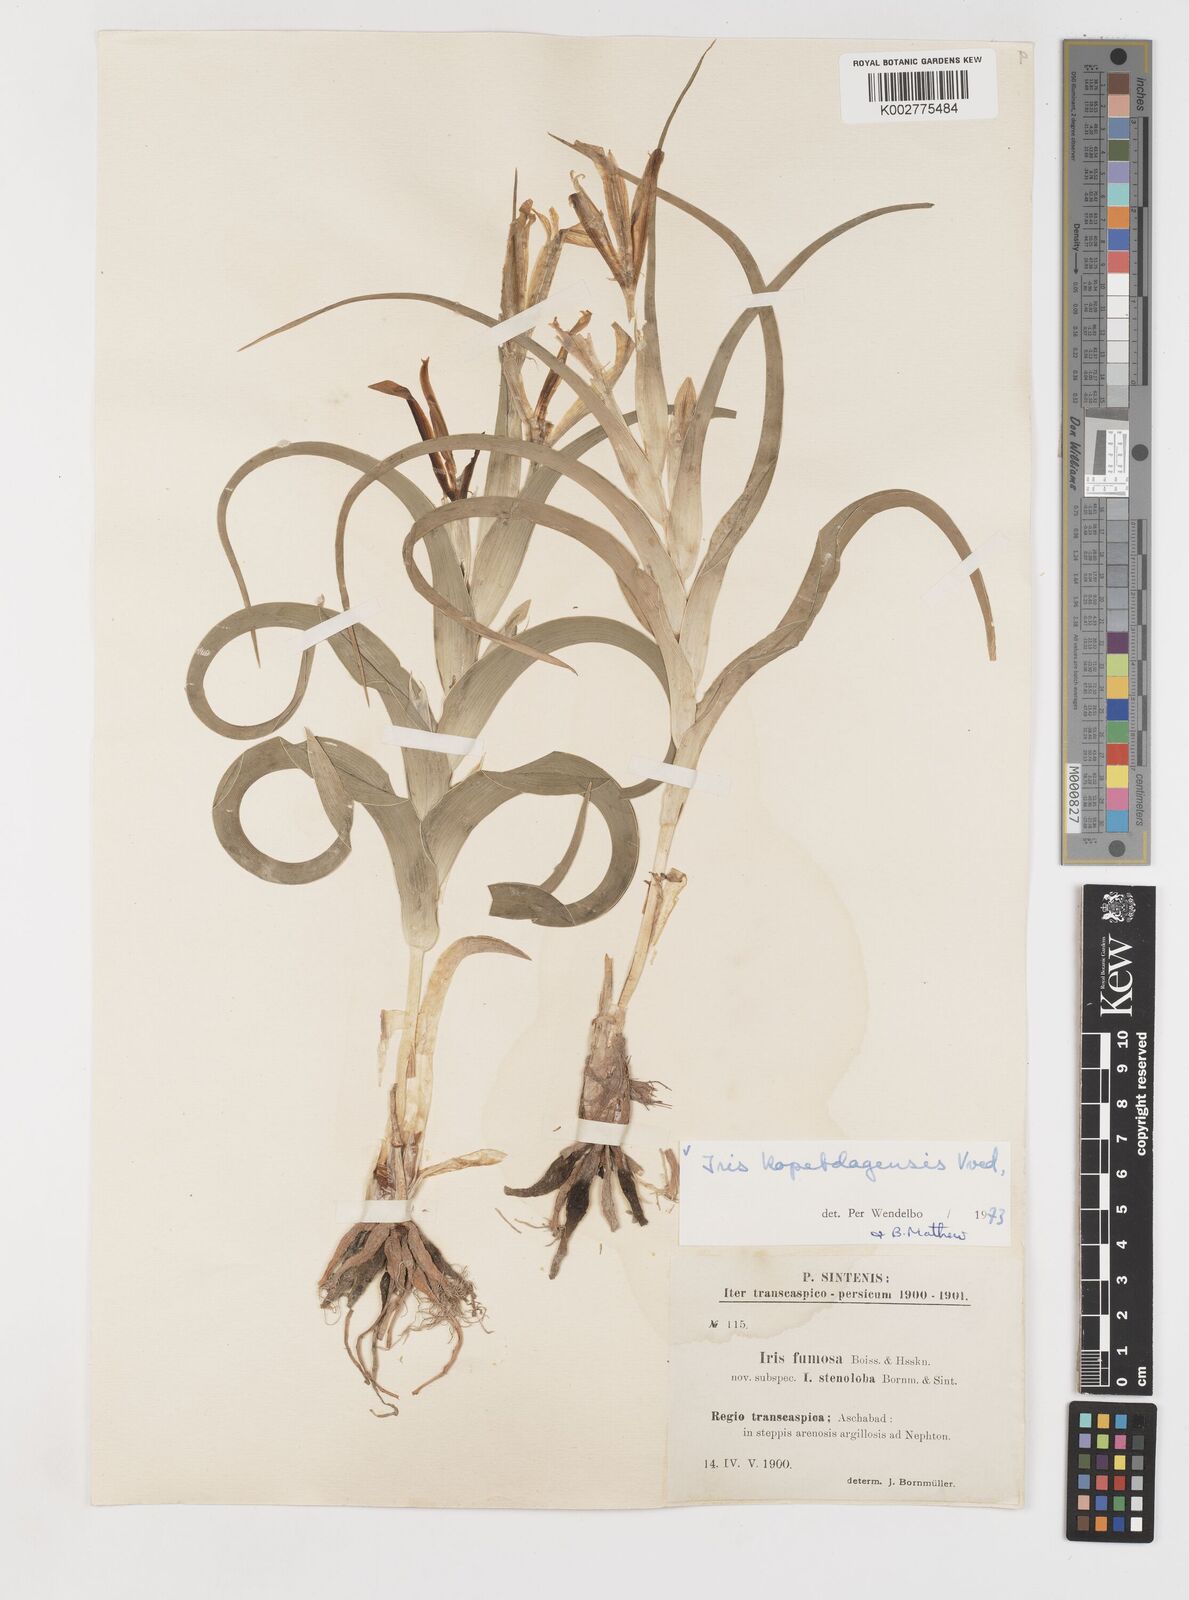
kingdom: Plantae
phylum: Tracheophyta
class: Liliopsida
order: Asparagales
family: Iridaceae
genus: Iris
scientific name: Iris kopetdagensis
